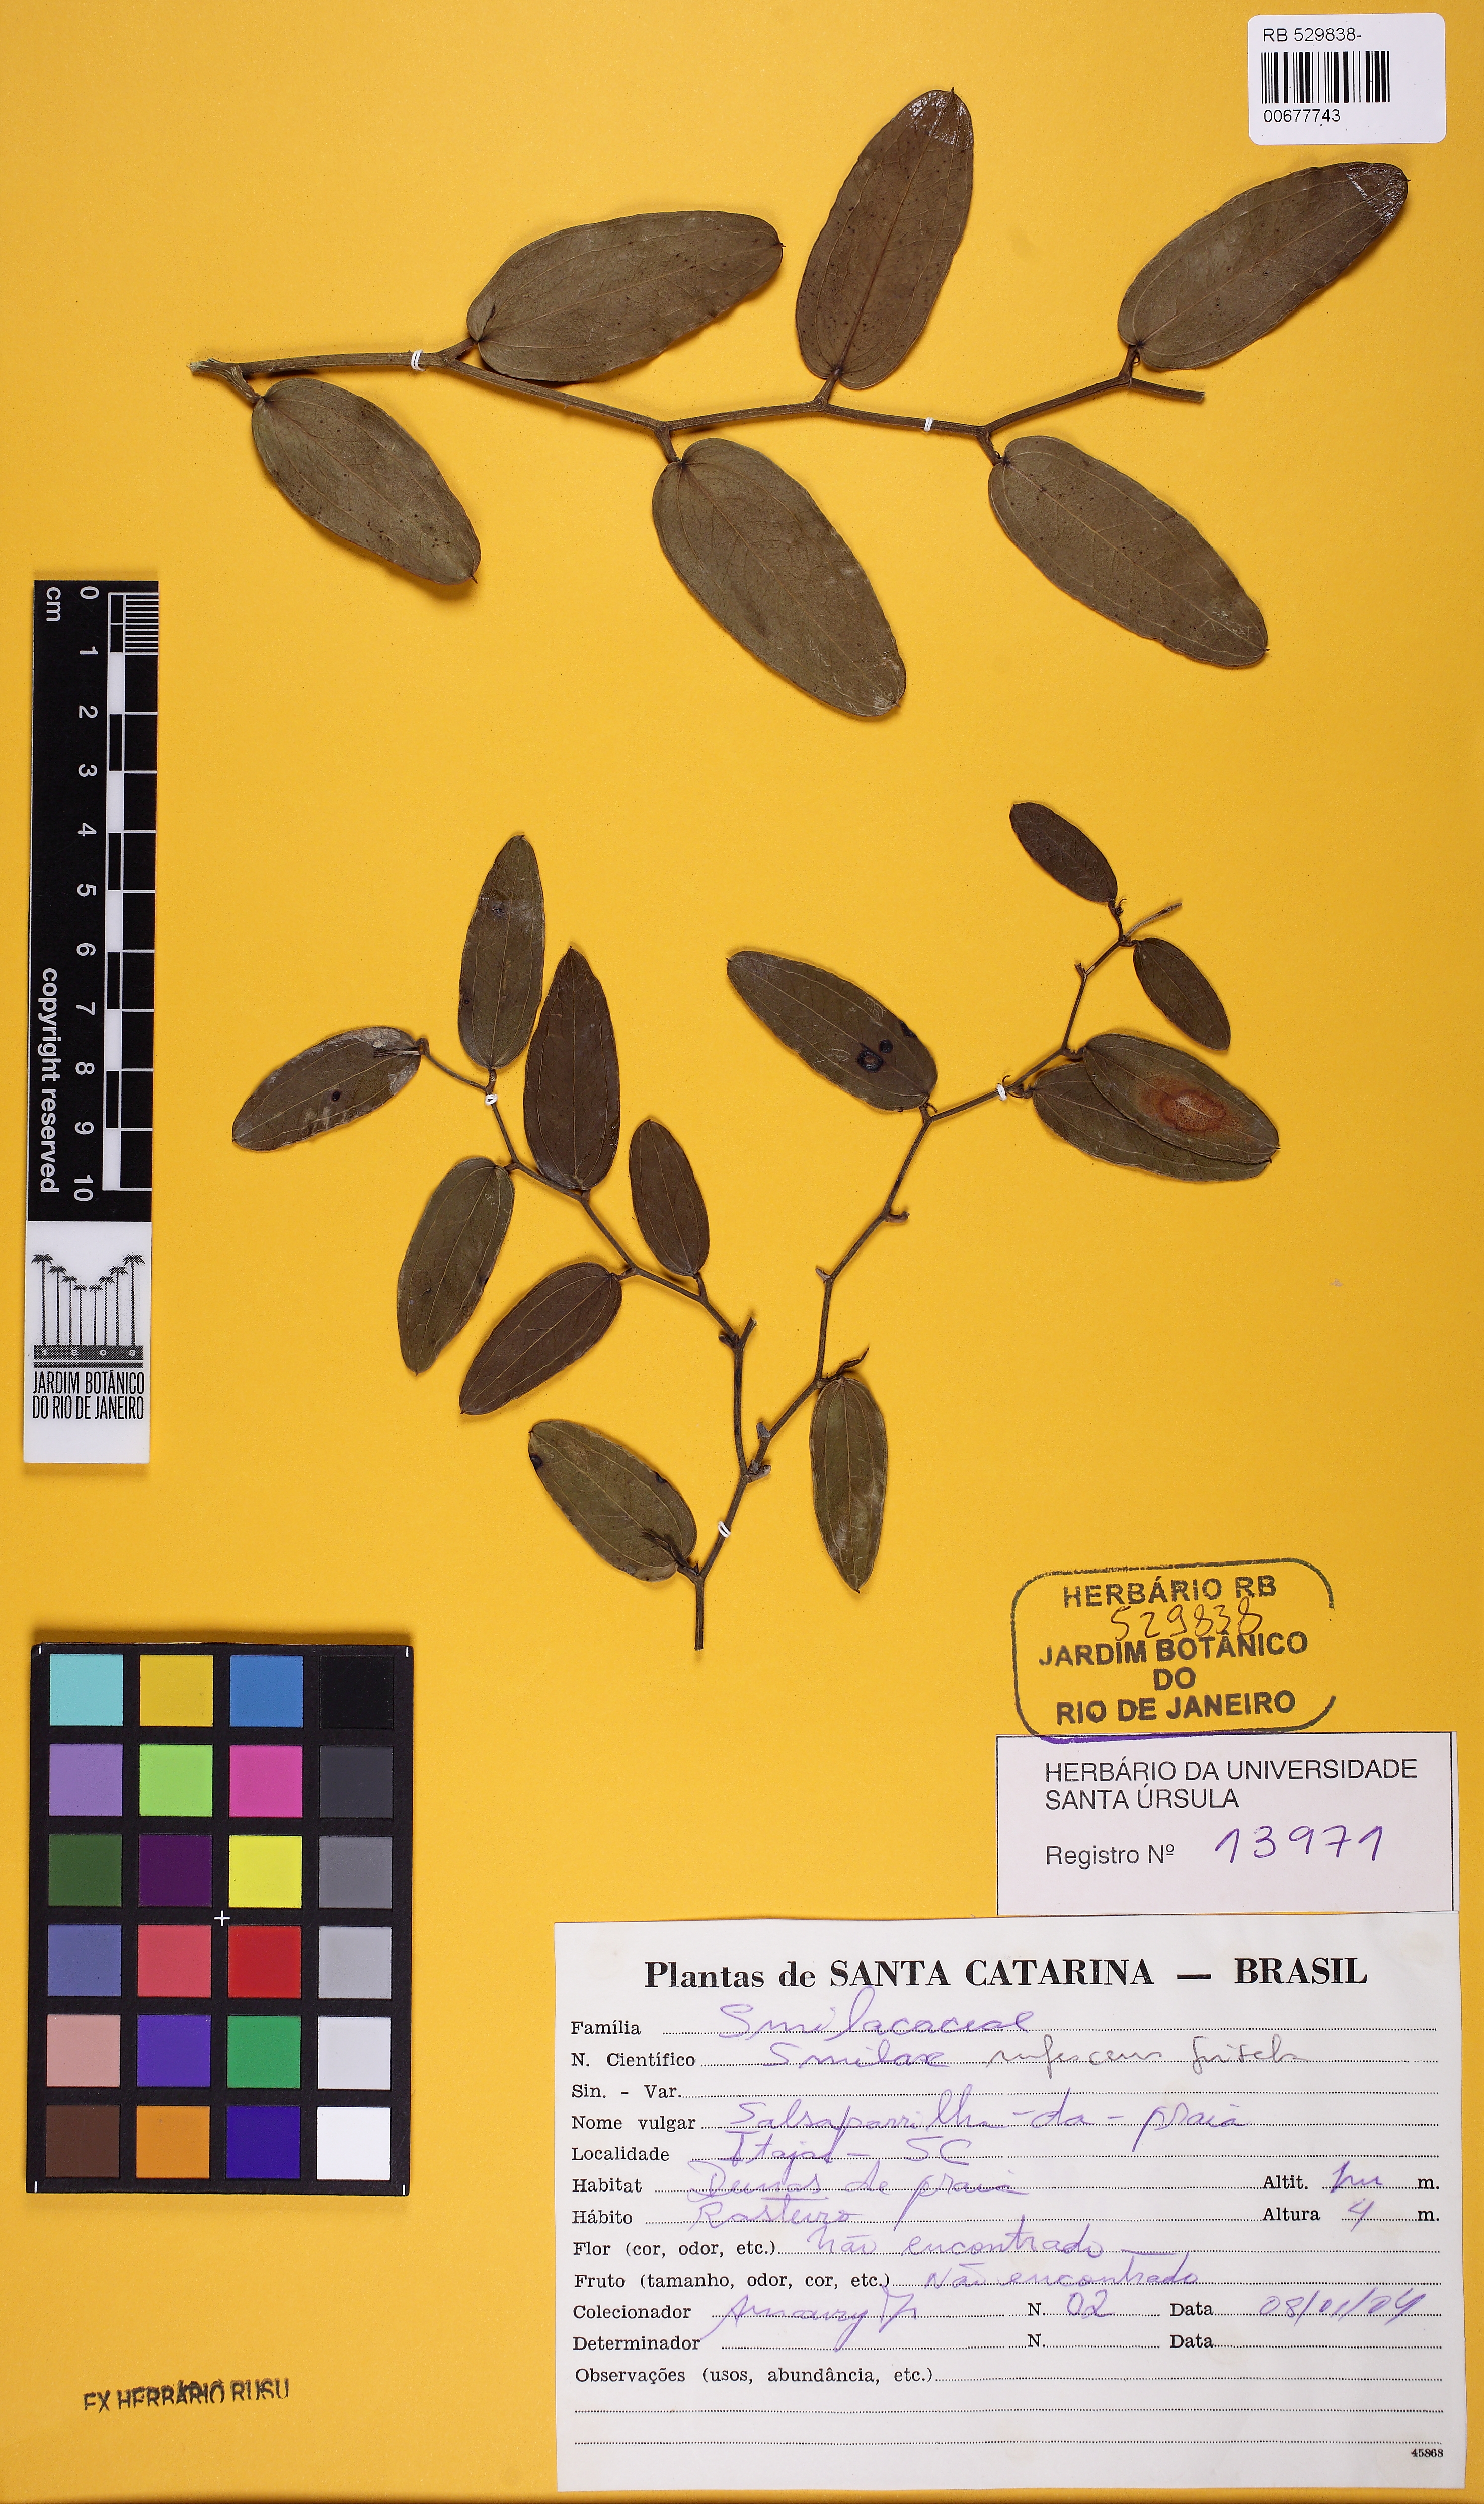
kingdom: Plantae
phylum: Tracheophyta
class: Liliopsida
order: Liliales
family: Smilacaceae
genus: Smilax
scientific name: Smilax rufescens
